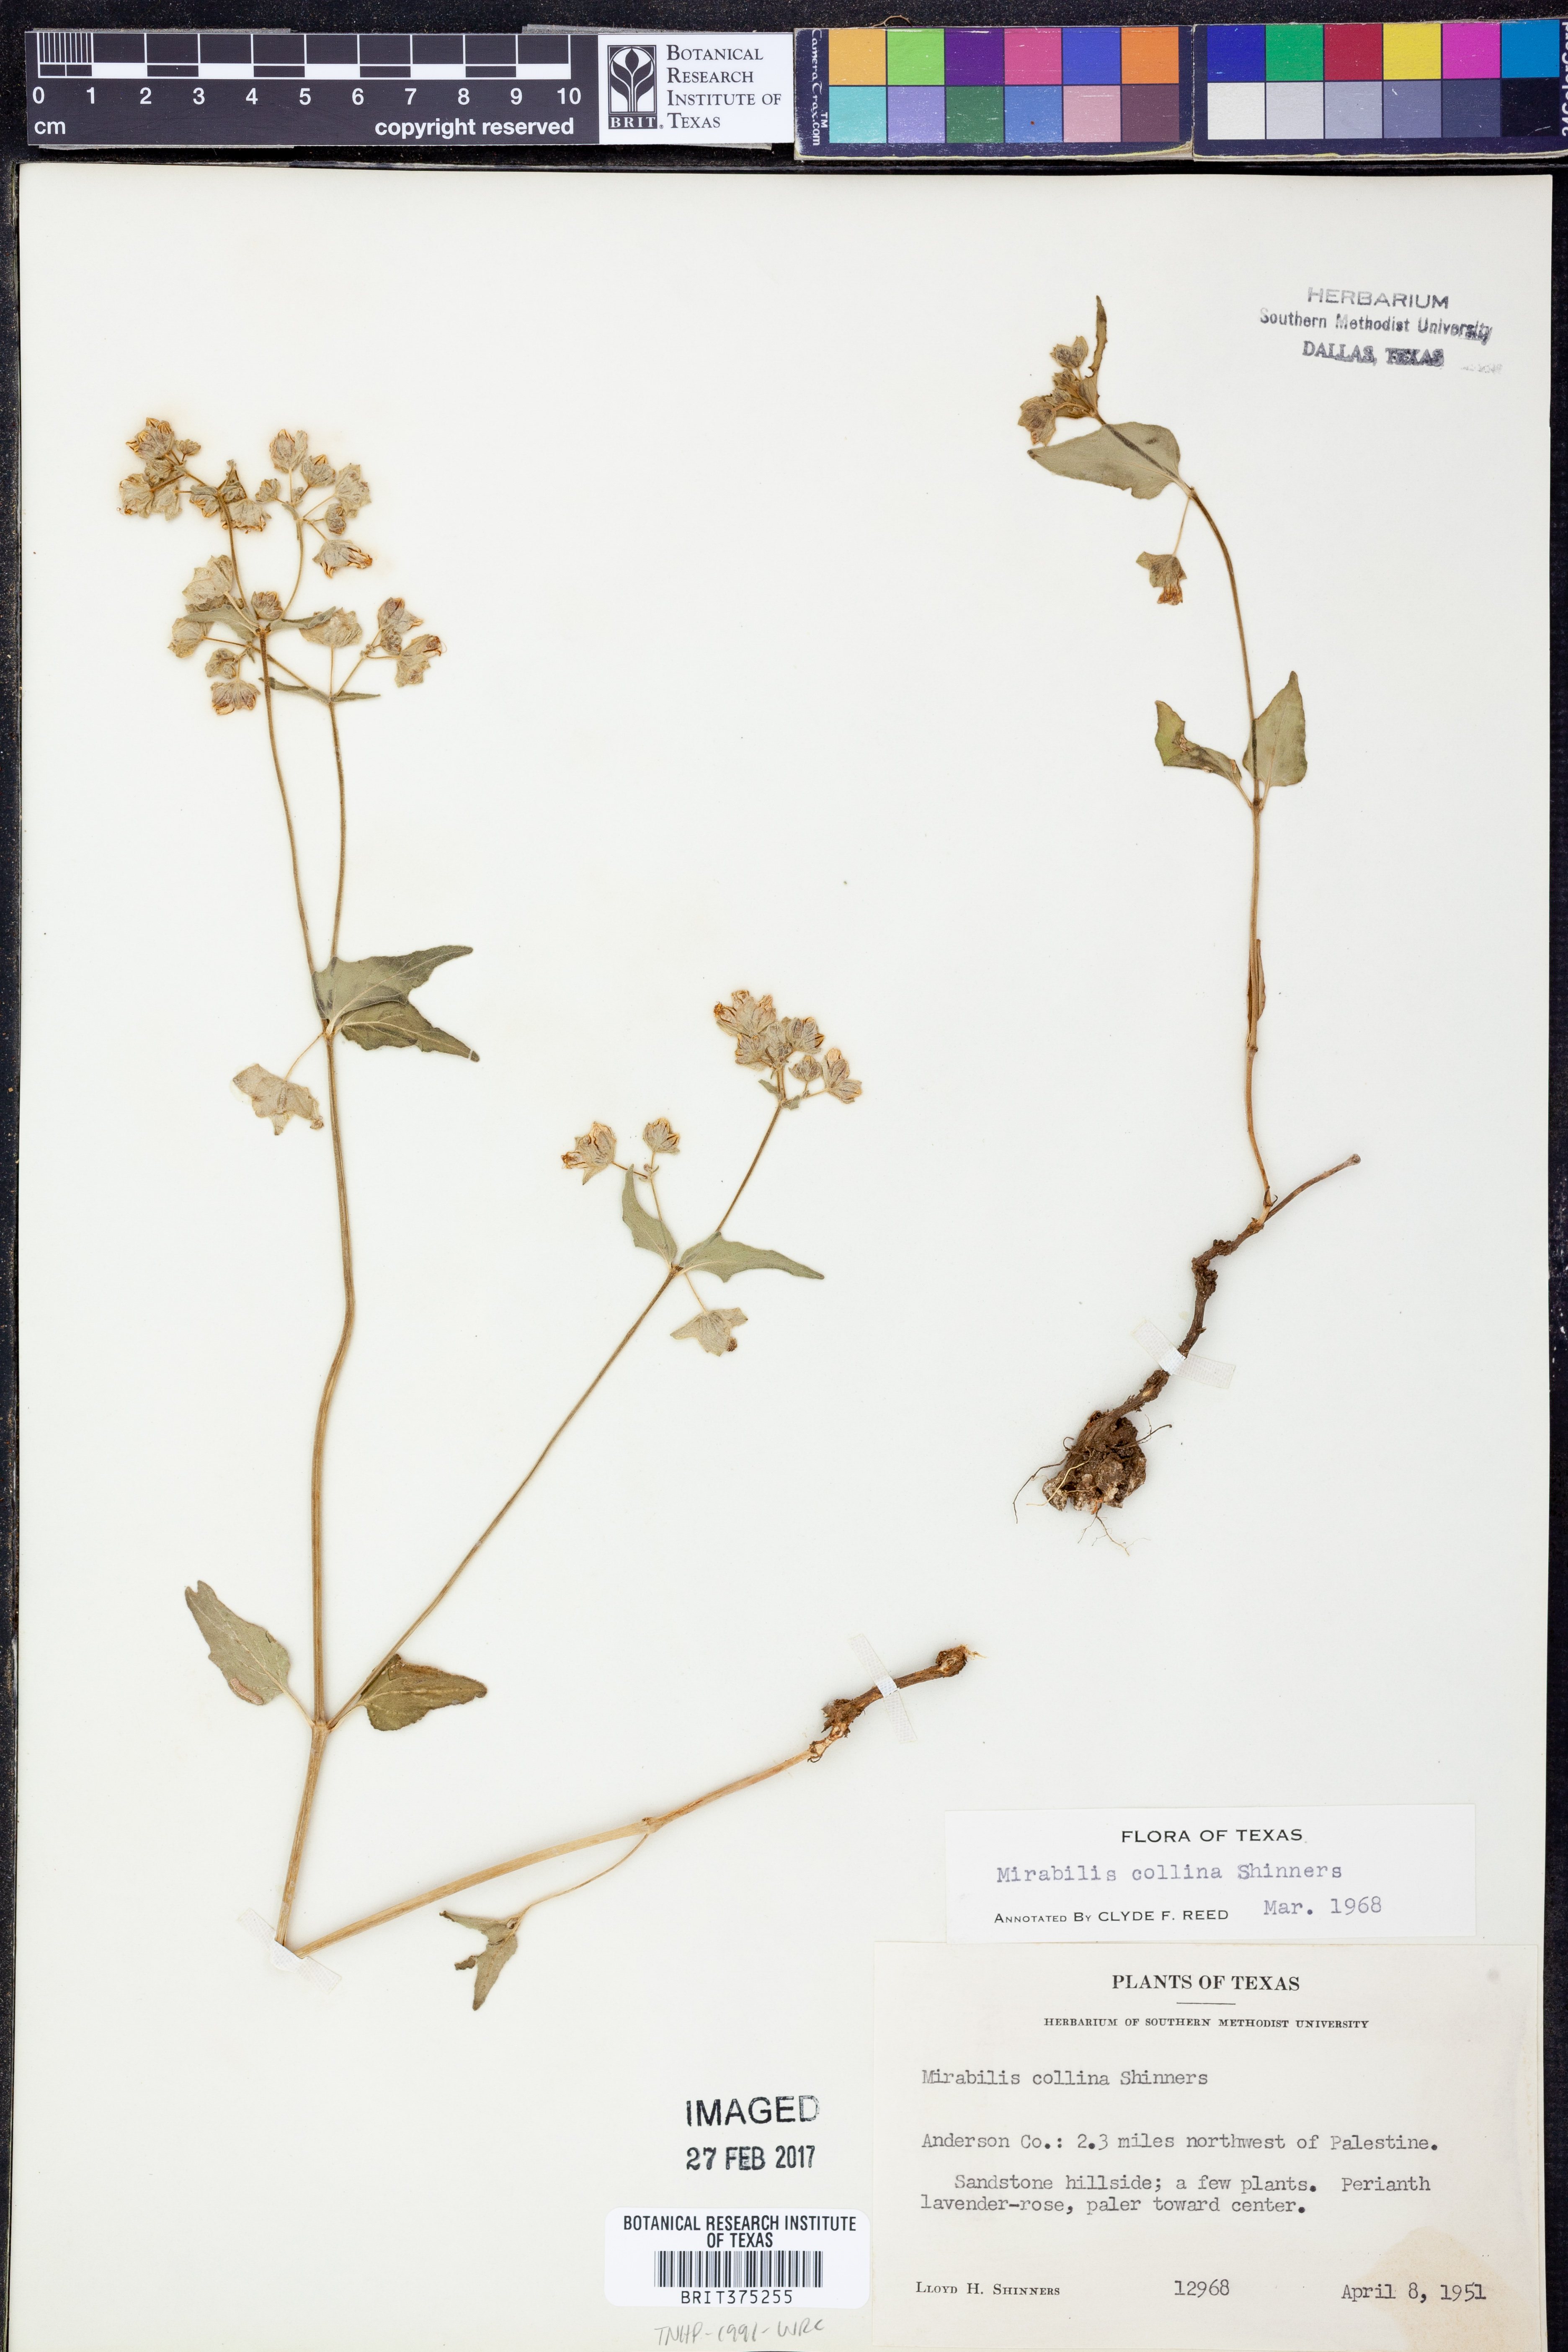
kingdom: Plantae
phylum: Tracheophyta
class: Magnoliopsida
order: Caryophyllales
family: Nyctaginaceae
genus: Mirabilis
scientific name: Mirabilis collina
